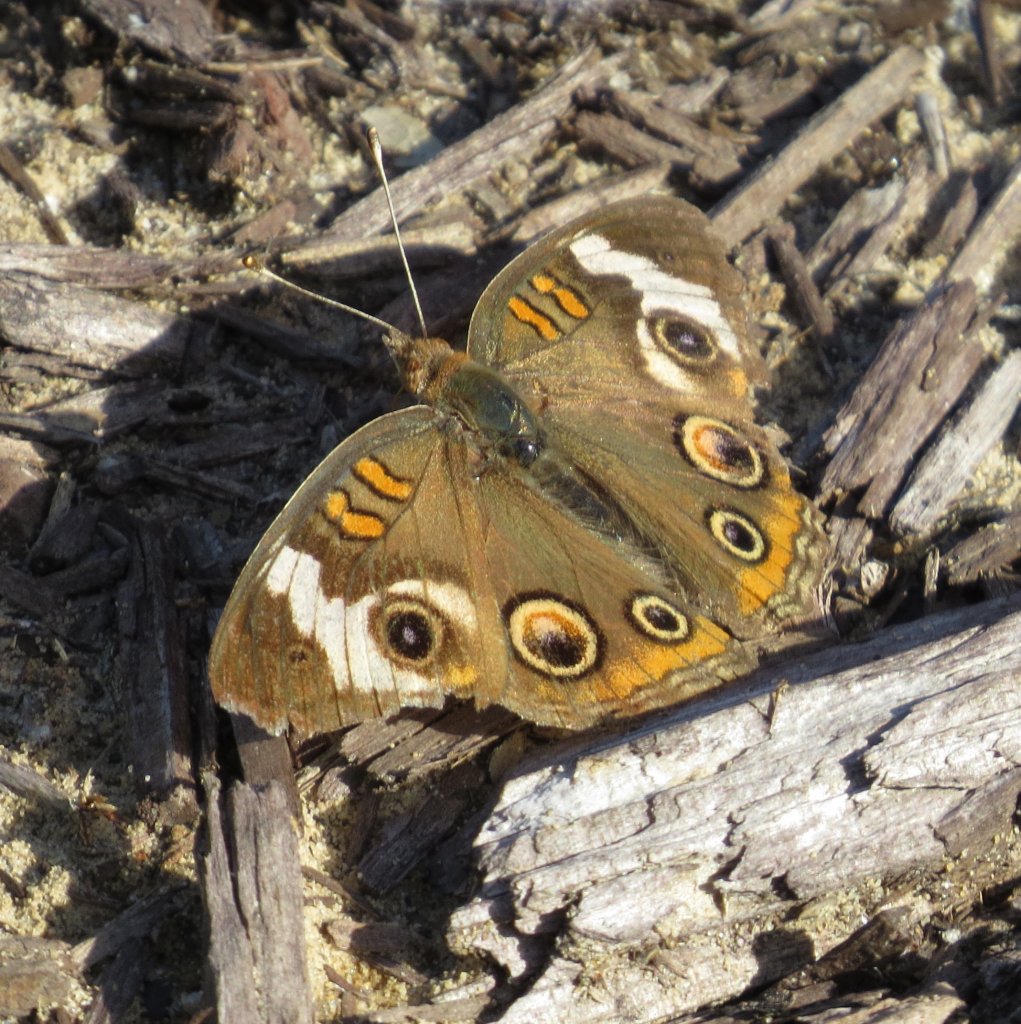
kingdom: Animalia
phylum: Arthropoda
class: Insecta
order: Lepidoptera
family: Nymphalidae
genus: Junonia
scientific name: Junonia coenia
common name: Common Buckeye
